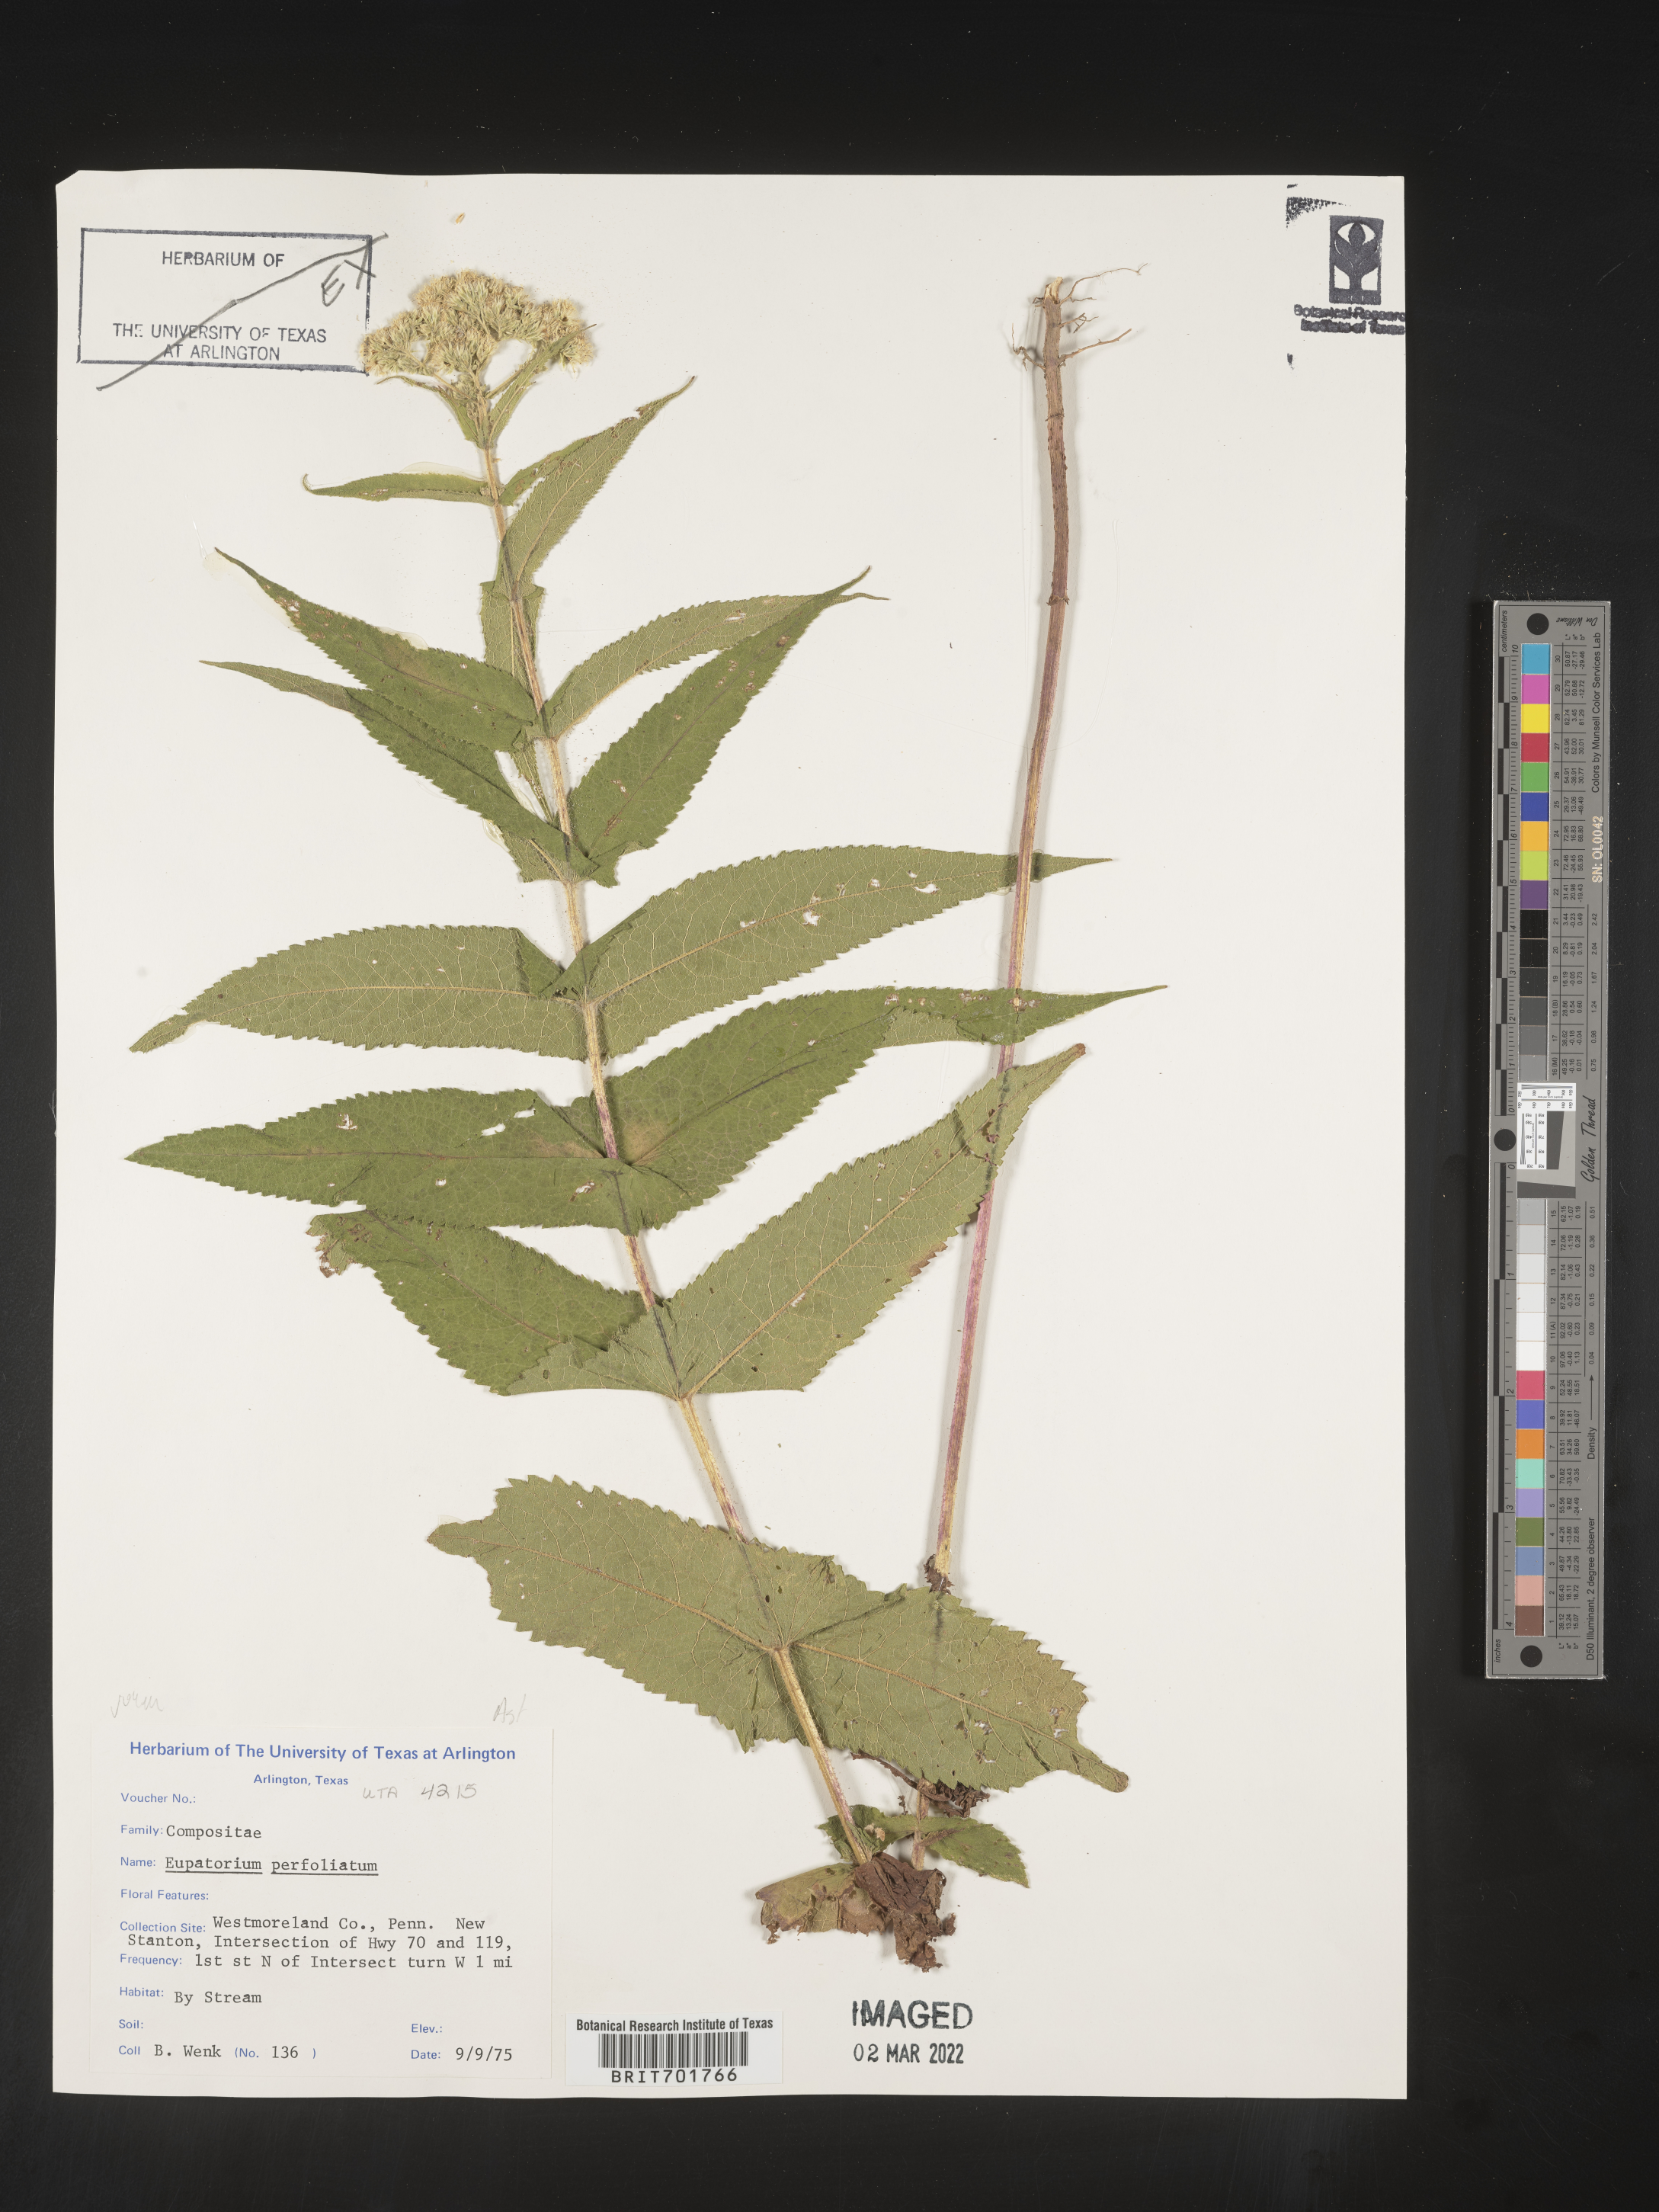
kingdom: Plantae
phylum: Tracheophyta
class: Magnoliopsida
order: Asterales
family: Asteraceae
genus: Eupatorium
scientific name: Eupatorium perfoliatum
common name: Boneset
